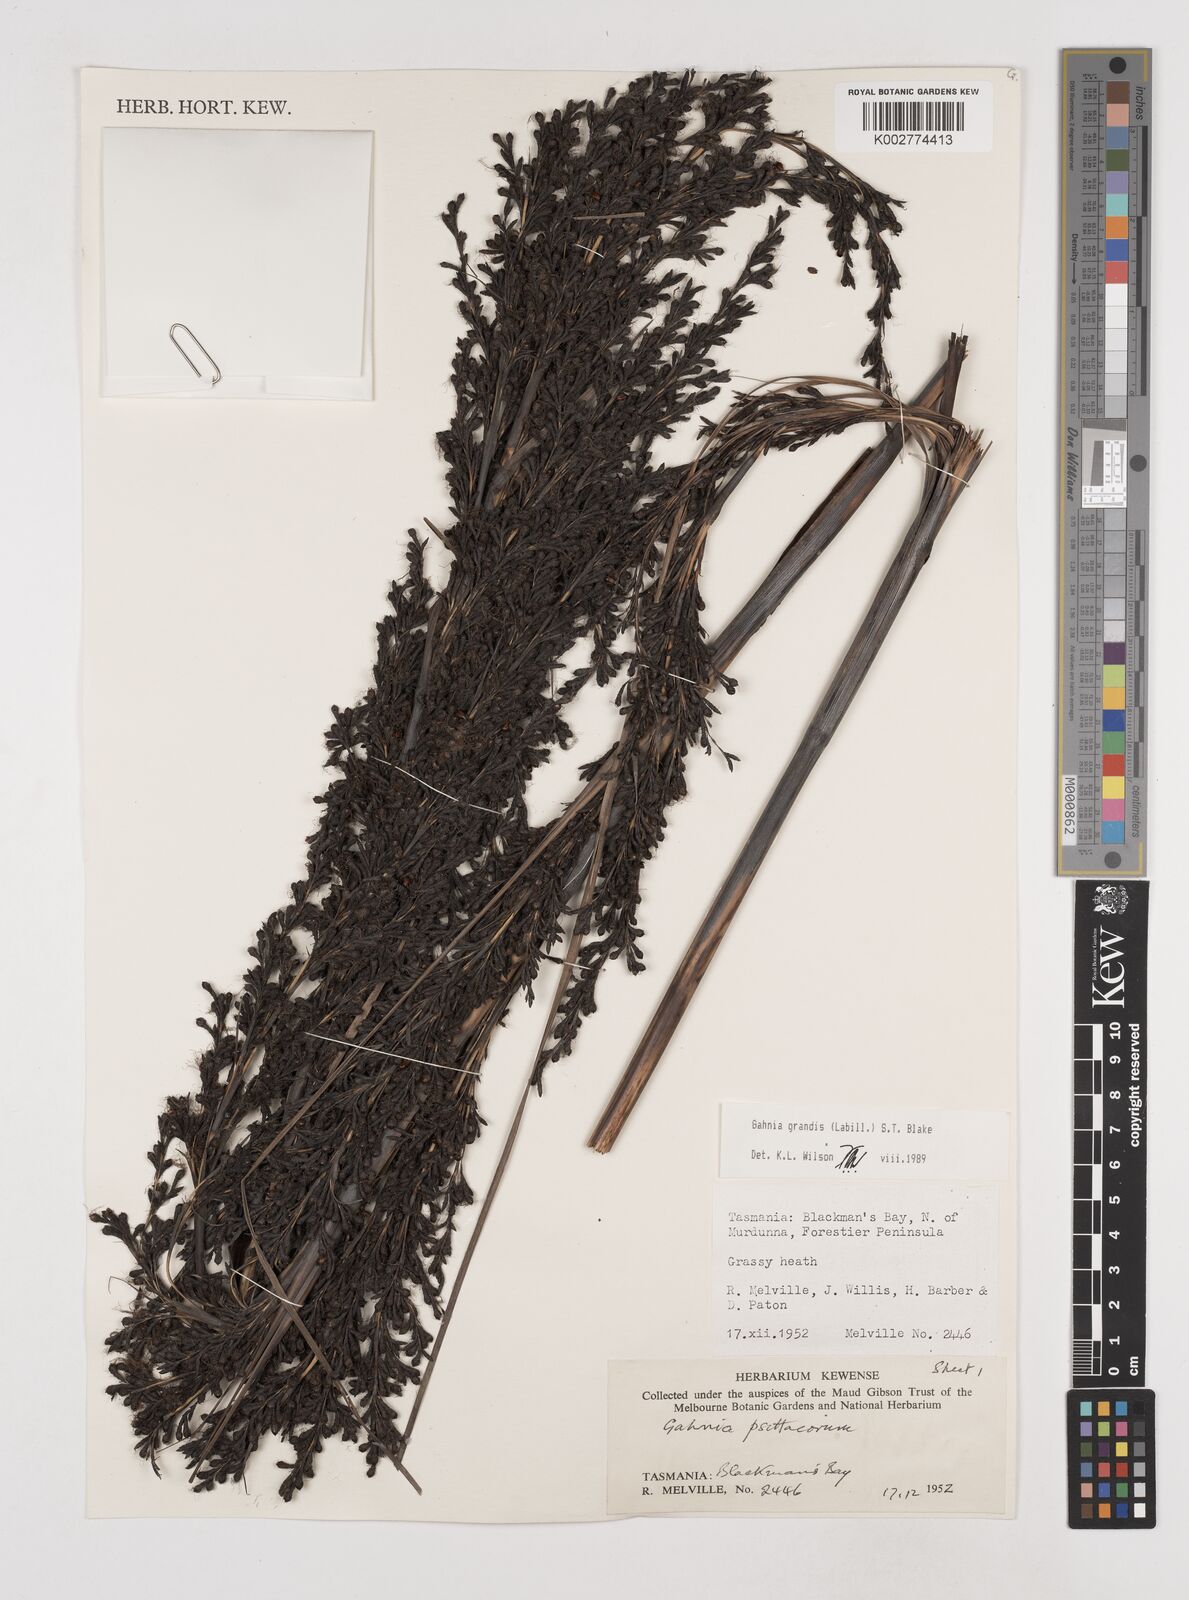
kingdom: Plantae
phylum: Tracheophyta
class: Liliopsida
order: Poales
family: Cyperaceae
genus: Gahnia
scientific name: Gahnia grandis
